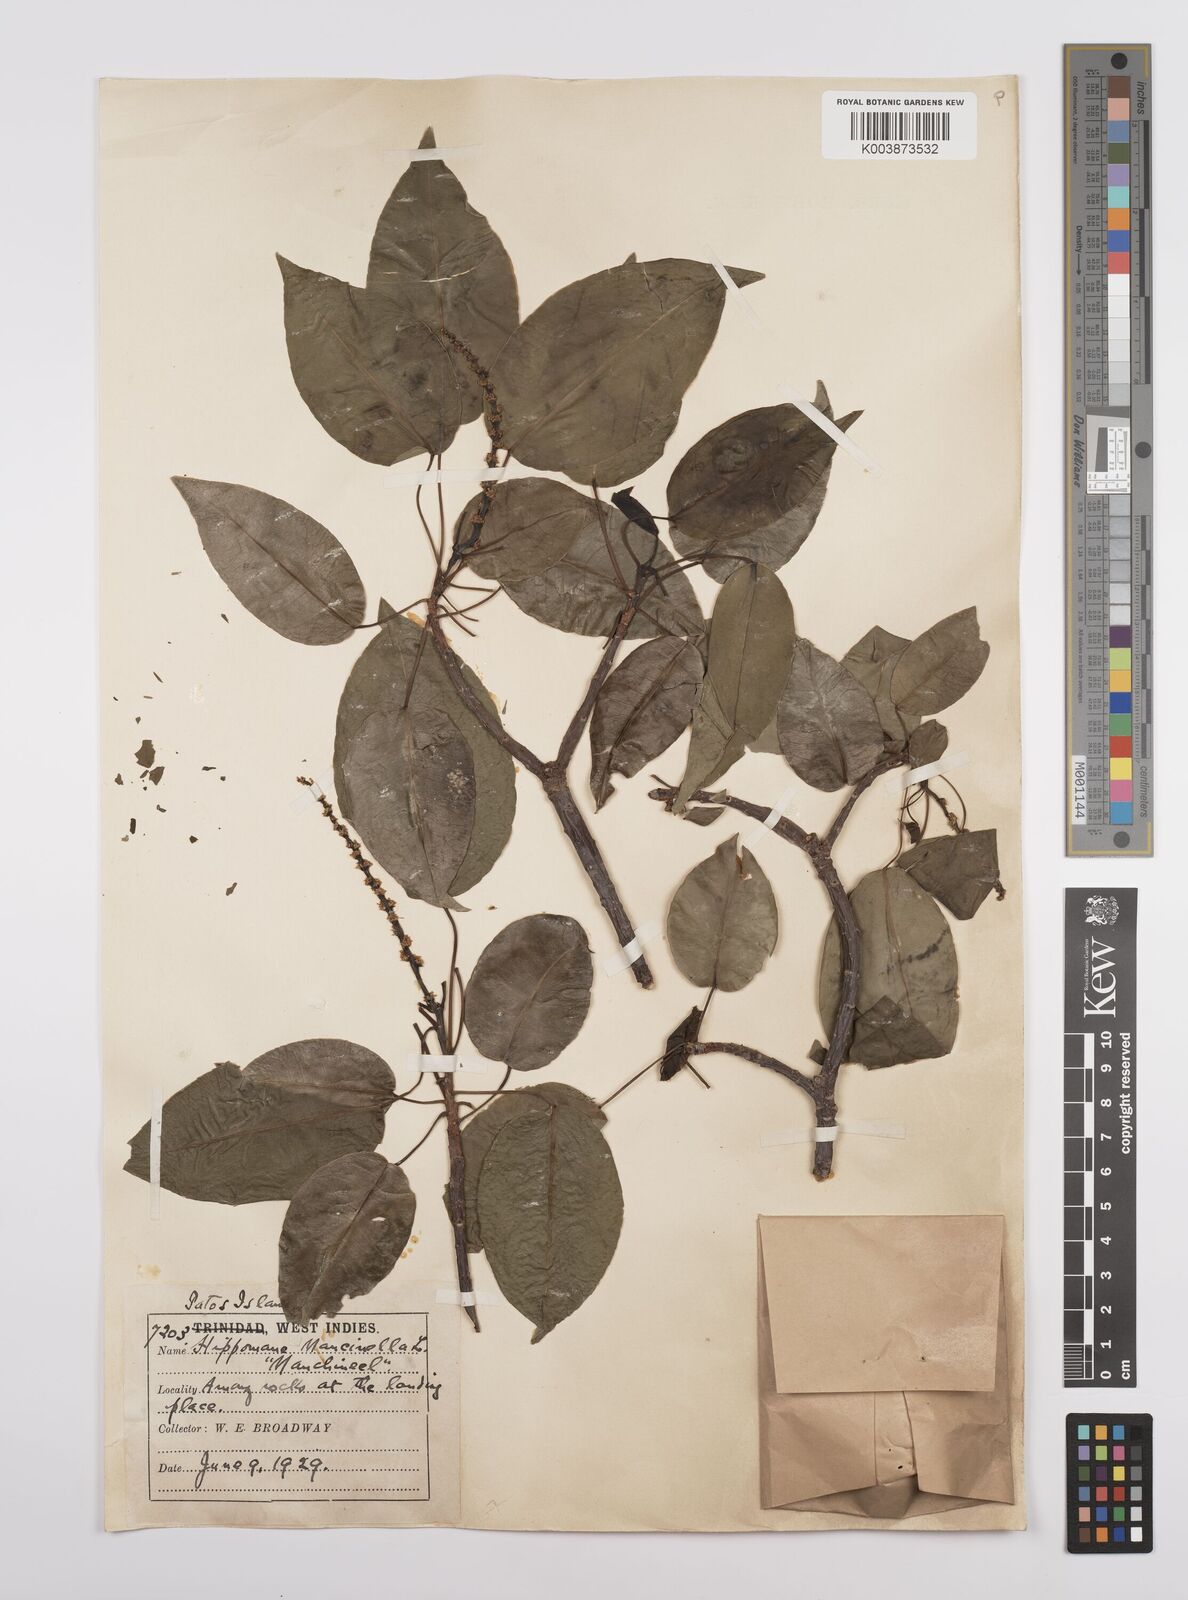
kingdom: Plantae
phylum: Tracheophyta
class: Magnoliopsida
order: Malpighiales
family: Euphorbiaceae
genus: Hippomane
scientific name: Hippomane mancinella
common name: Manchineel
